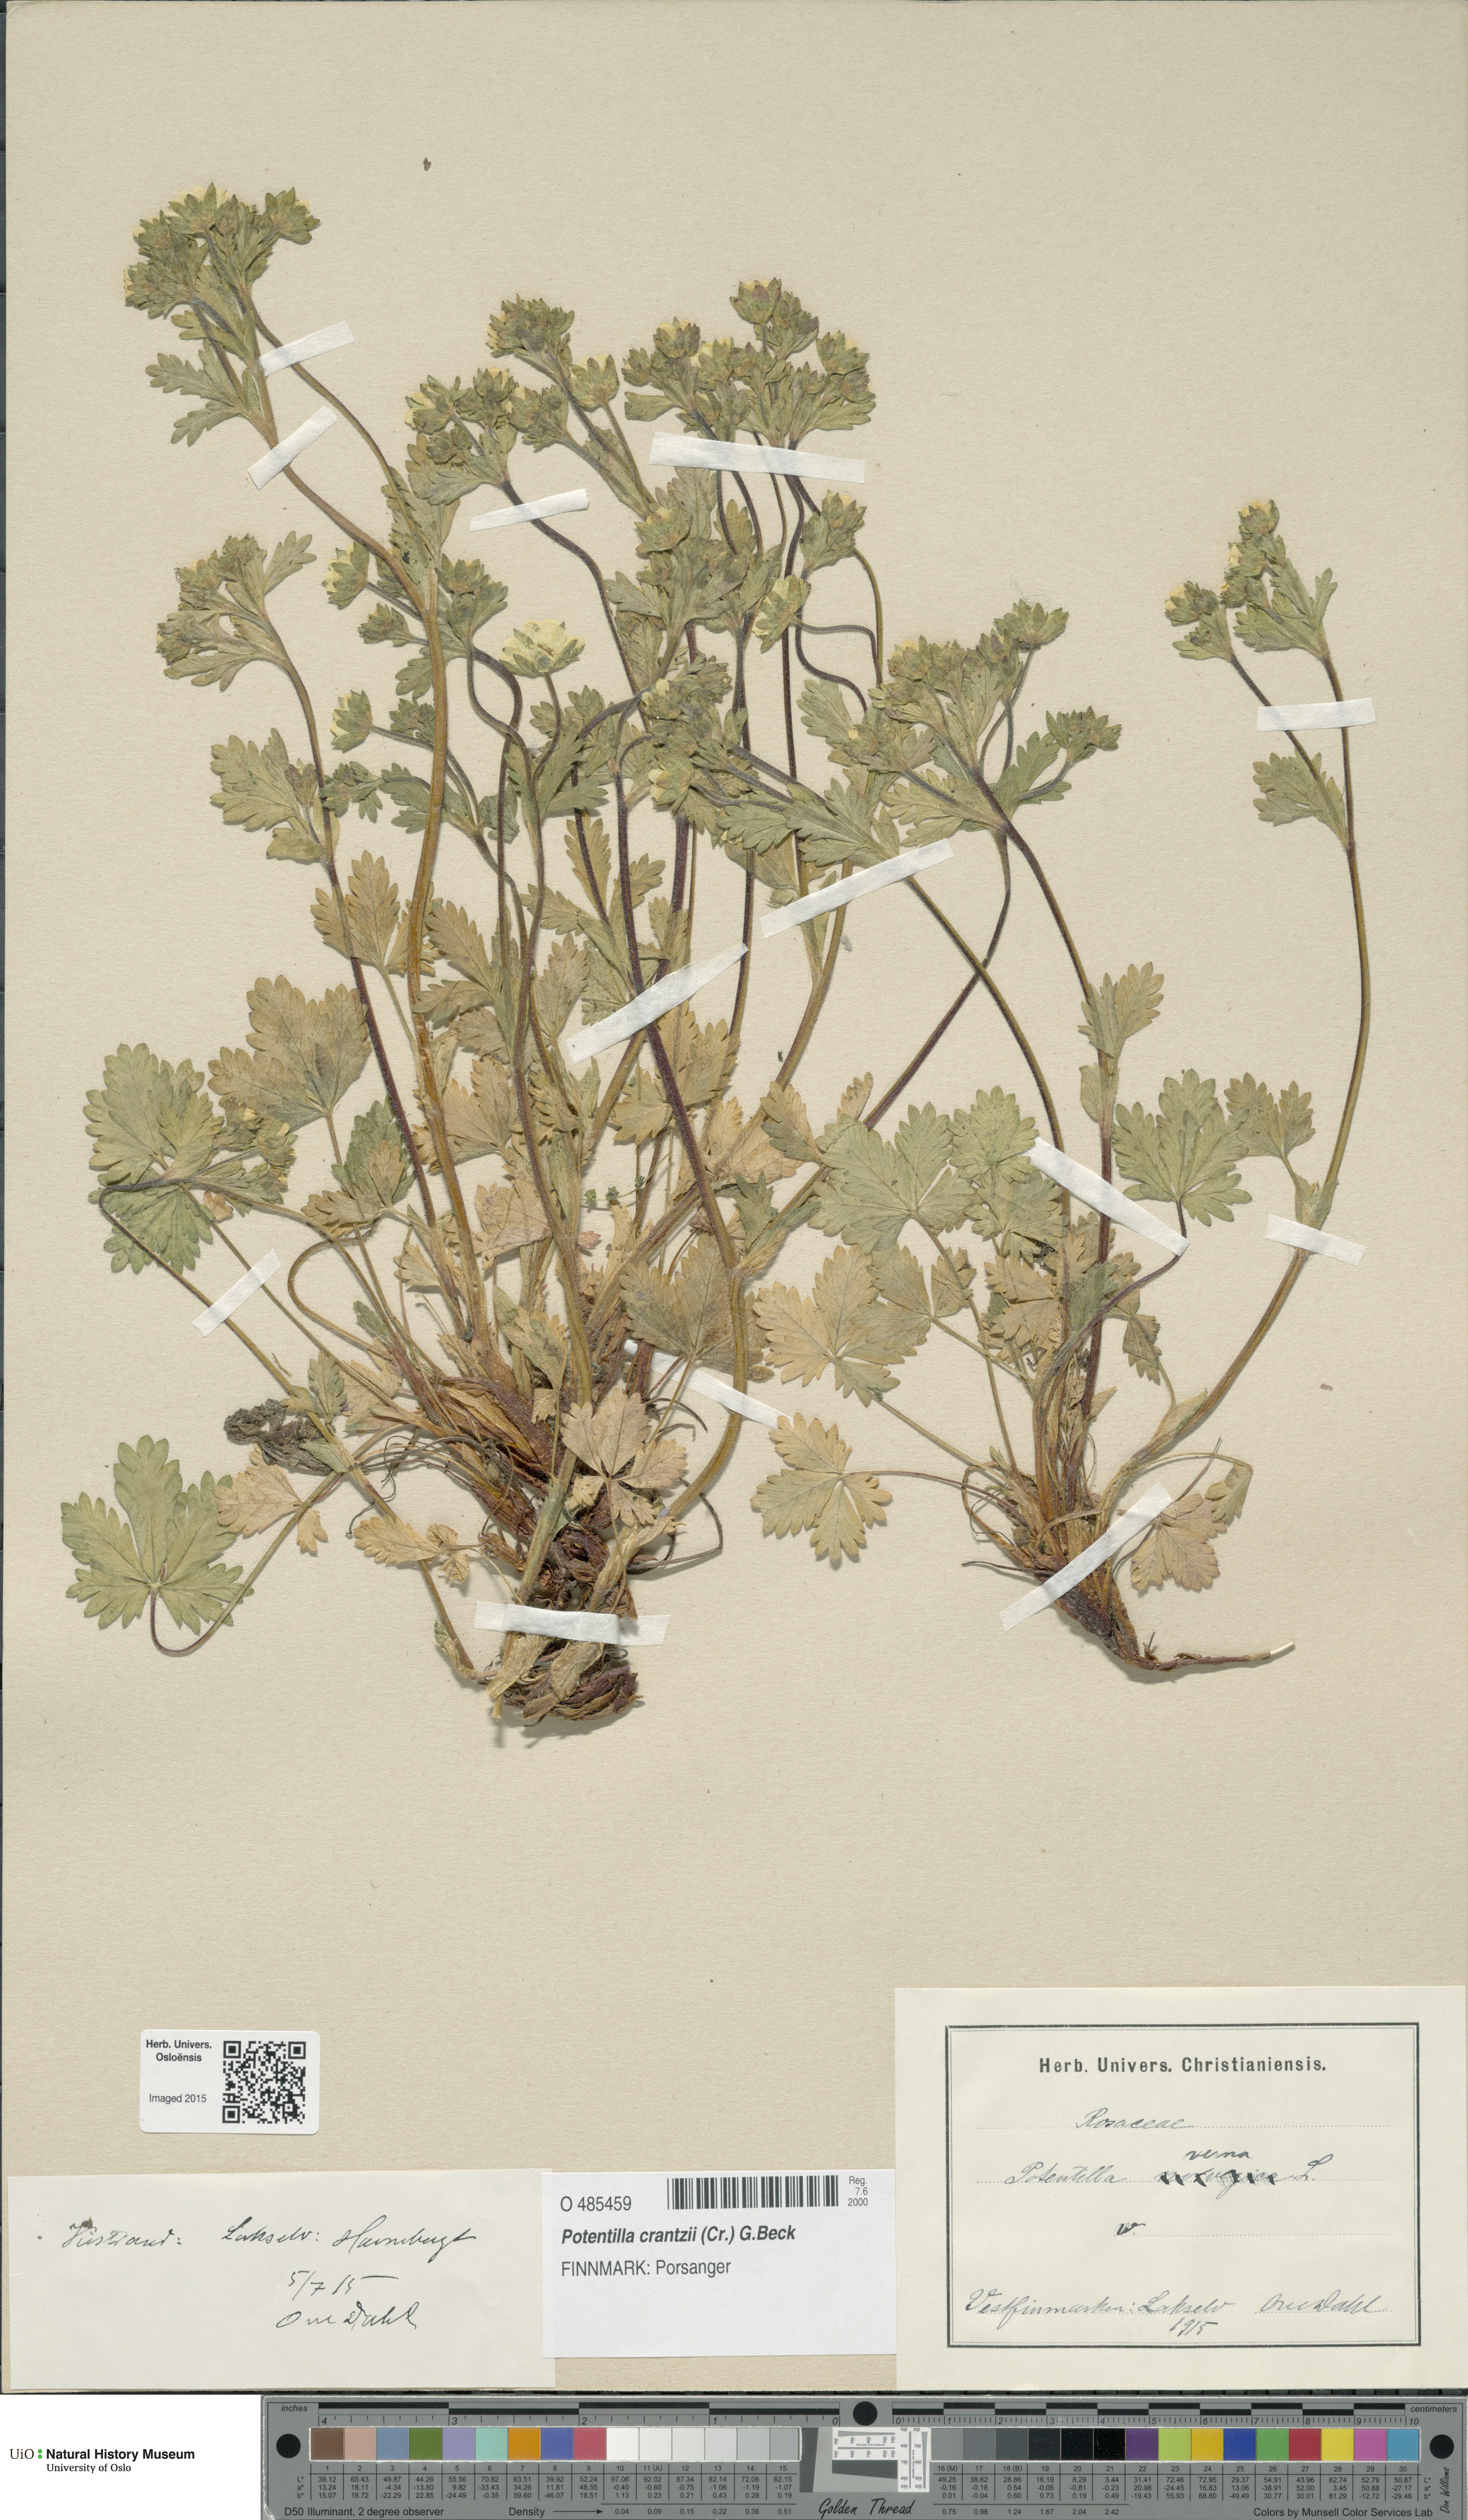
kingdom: Plantae
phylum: Tracheophyta
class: Magnoliopsida
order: Rosales
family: Rosaceae
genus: Potentilla
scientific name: Potentilla verna
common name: Spring cinquefoil
